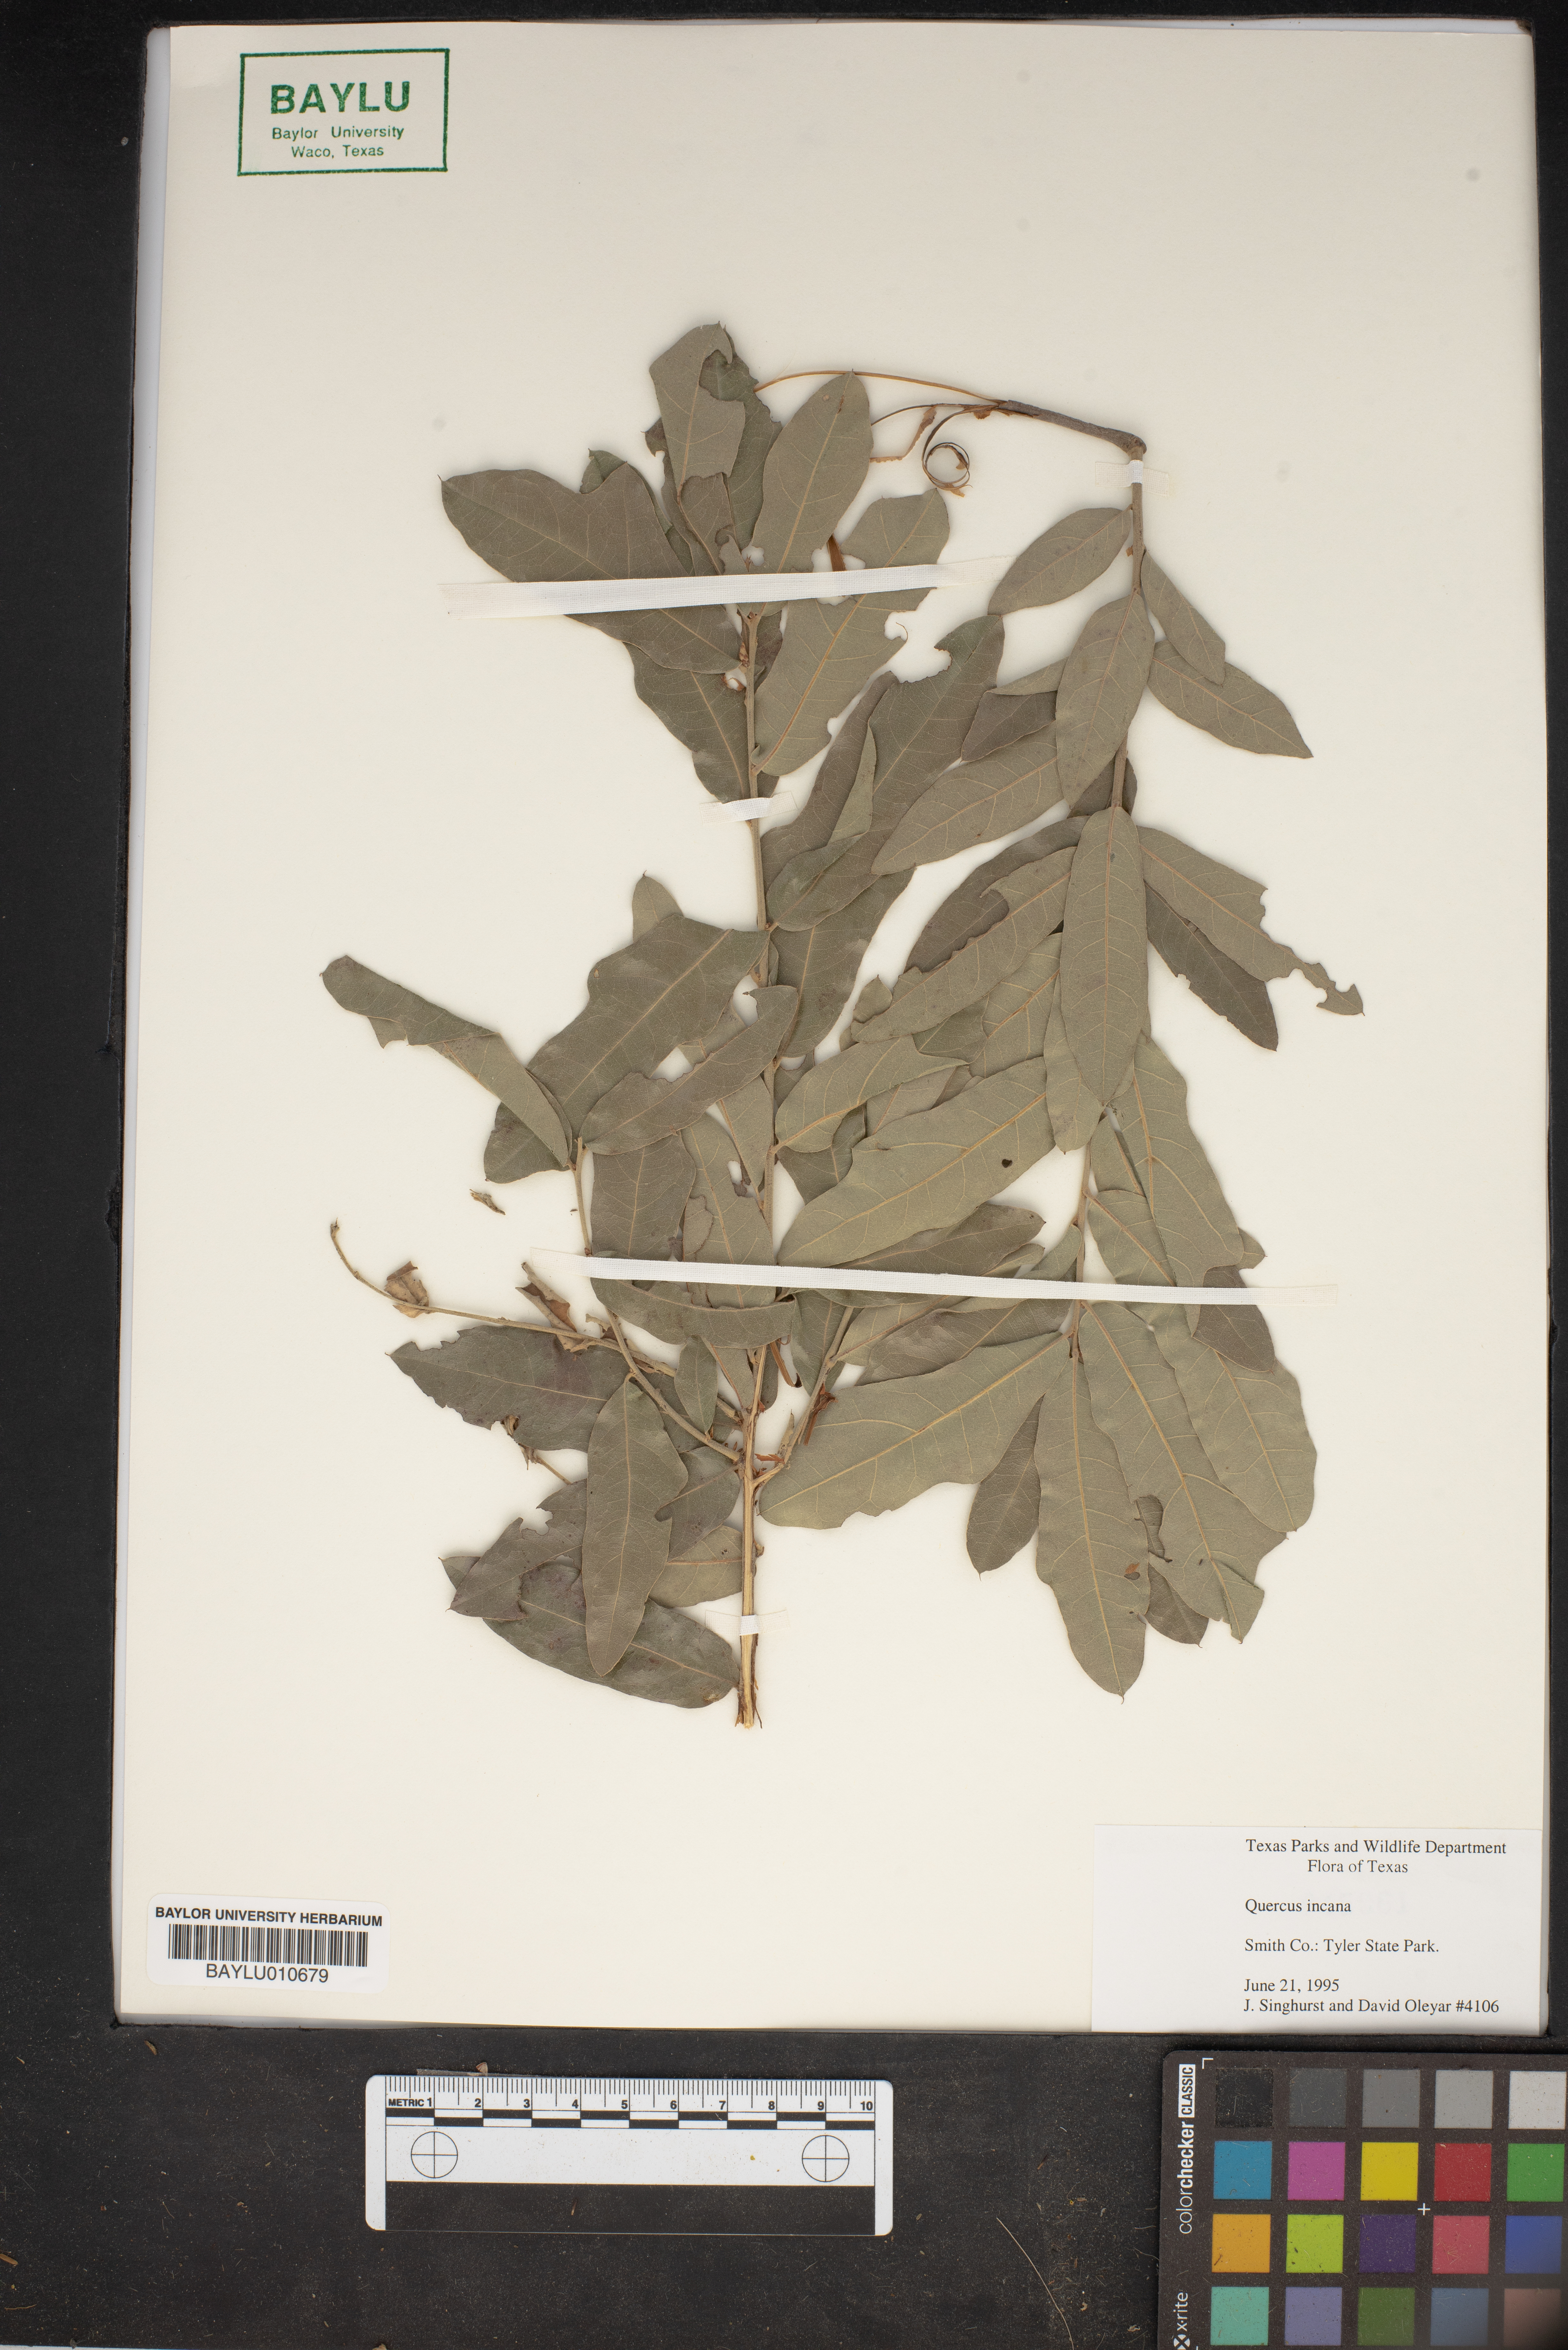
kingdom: Plantae
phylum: Tracheophyta
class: Magnoliopsida
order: Fagales
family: Fagaceae
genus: Quercus
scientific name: Quercus incana
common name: Bluejack oak
